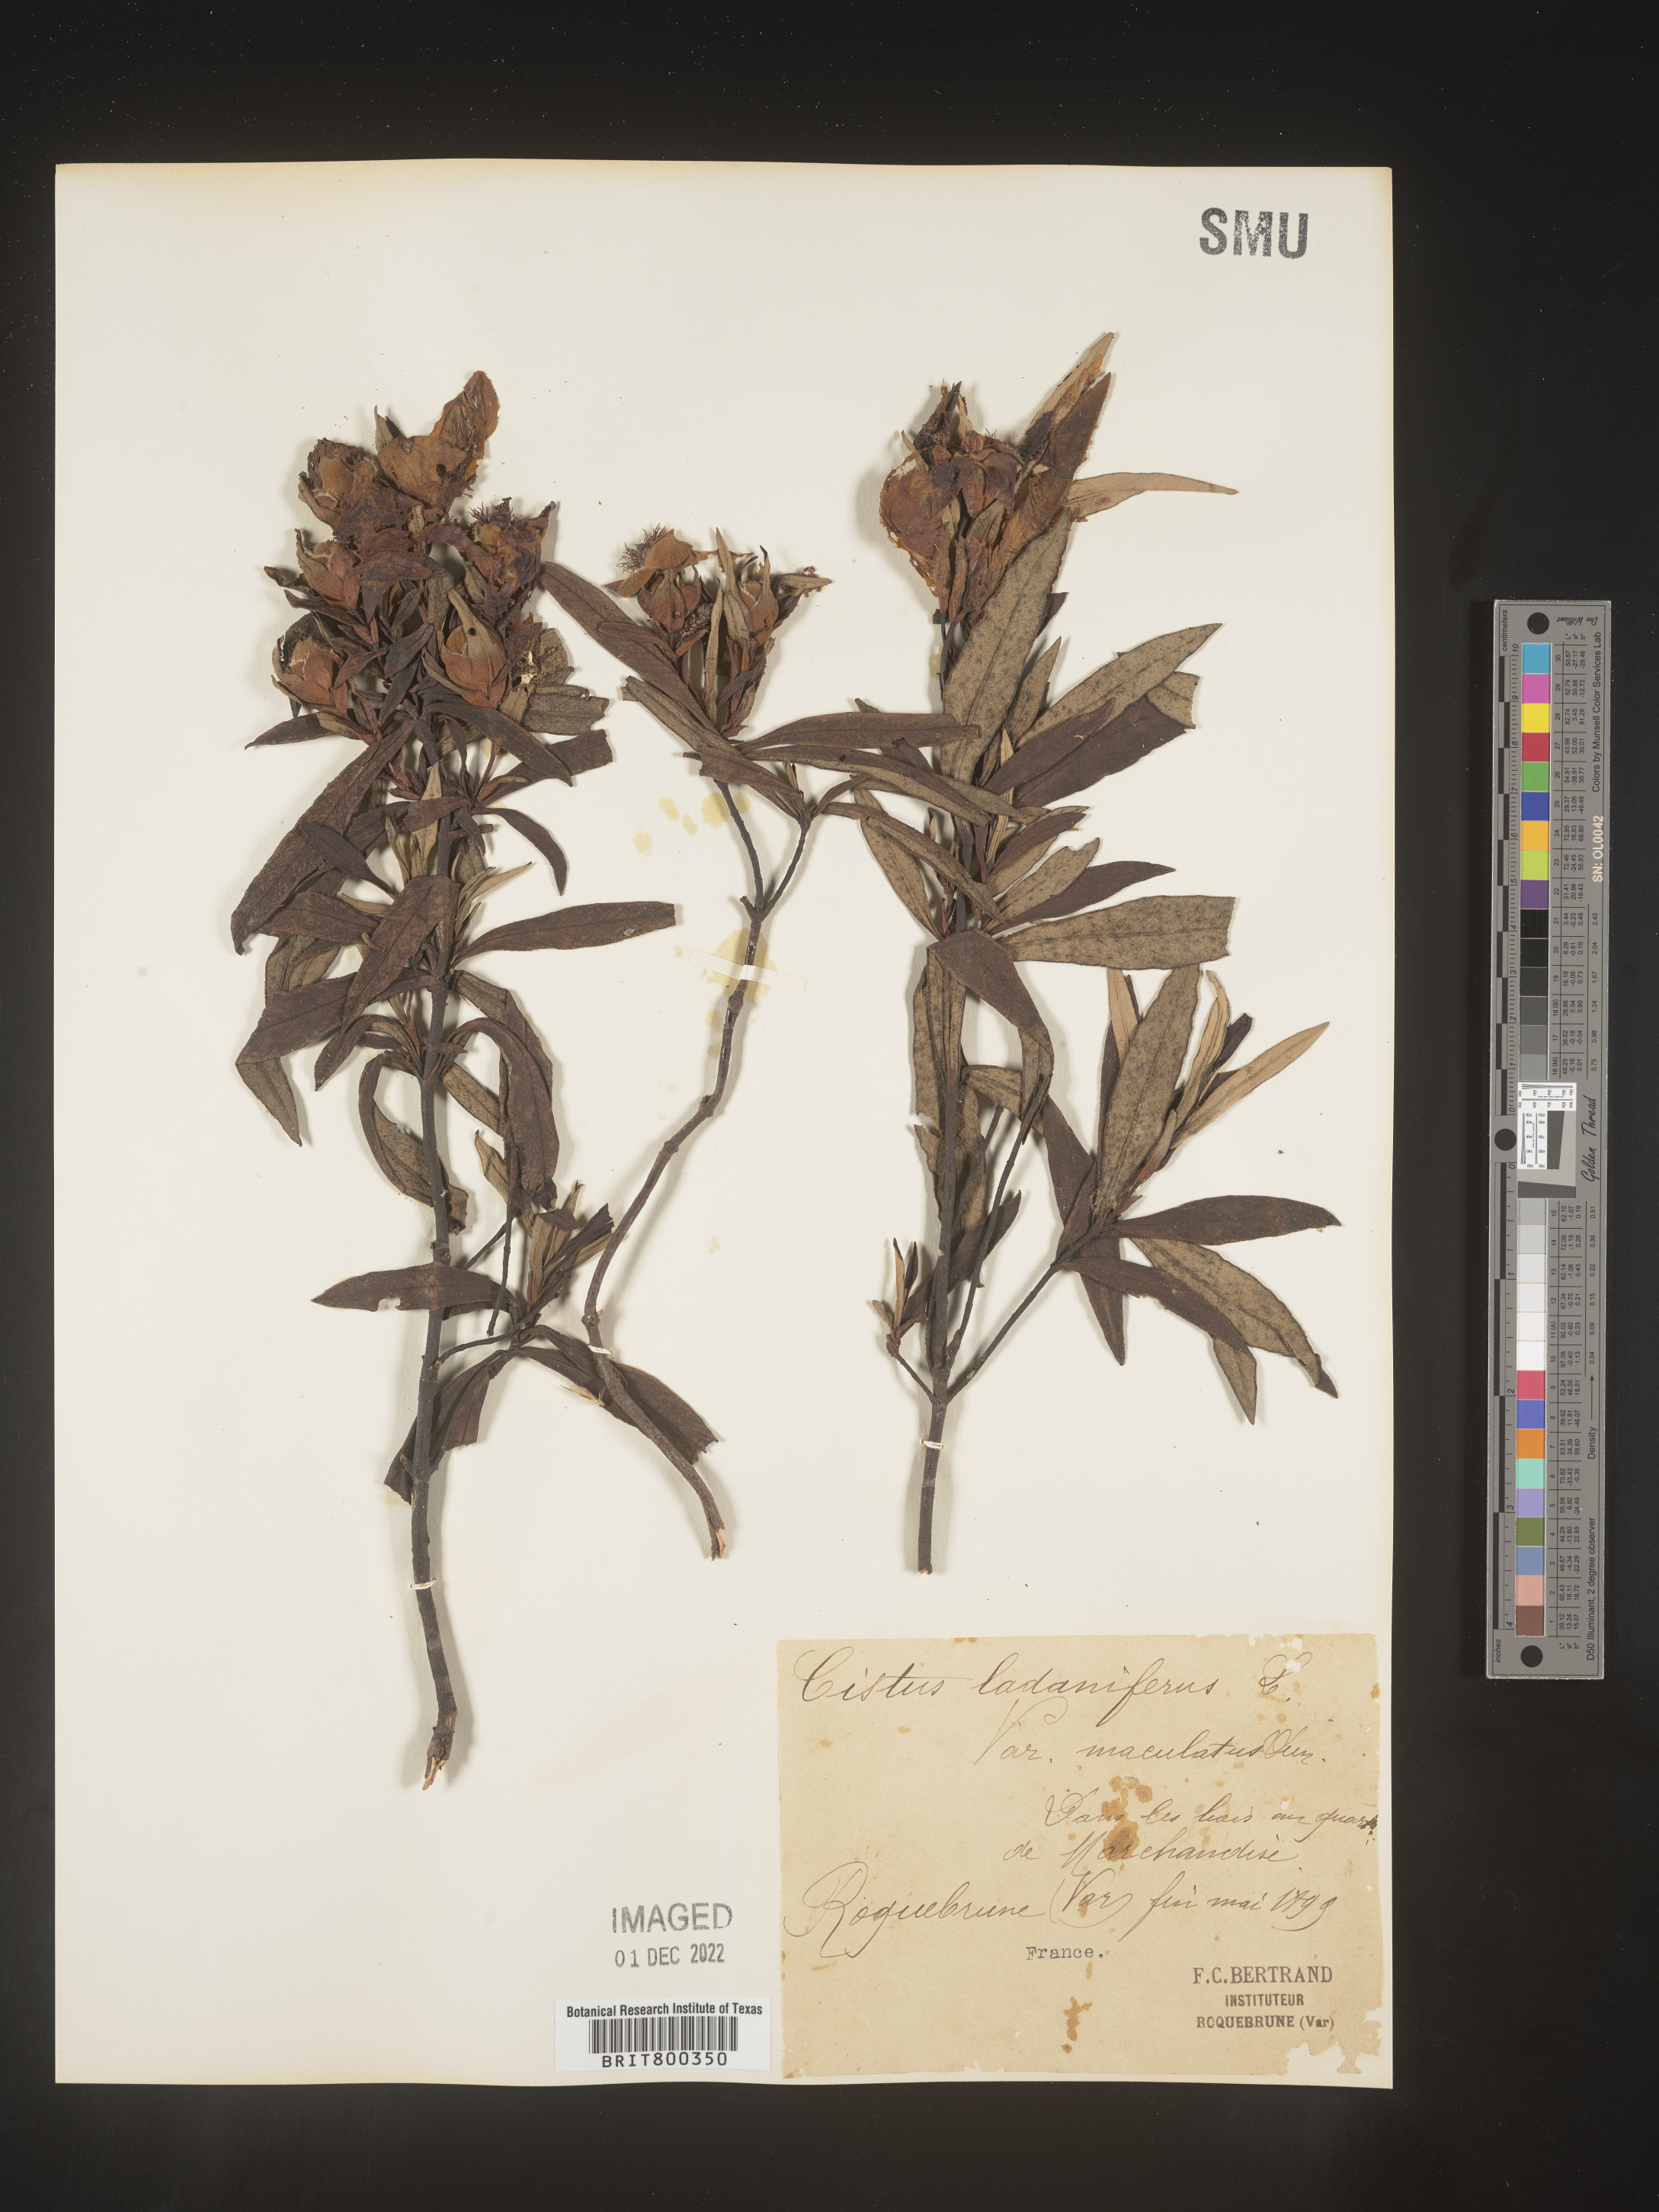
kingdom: Plantae
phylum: Tracheophyta
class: Magnoliopsida
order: Malvales
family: Cistaceae
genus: Cistus
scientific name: Cistus
